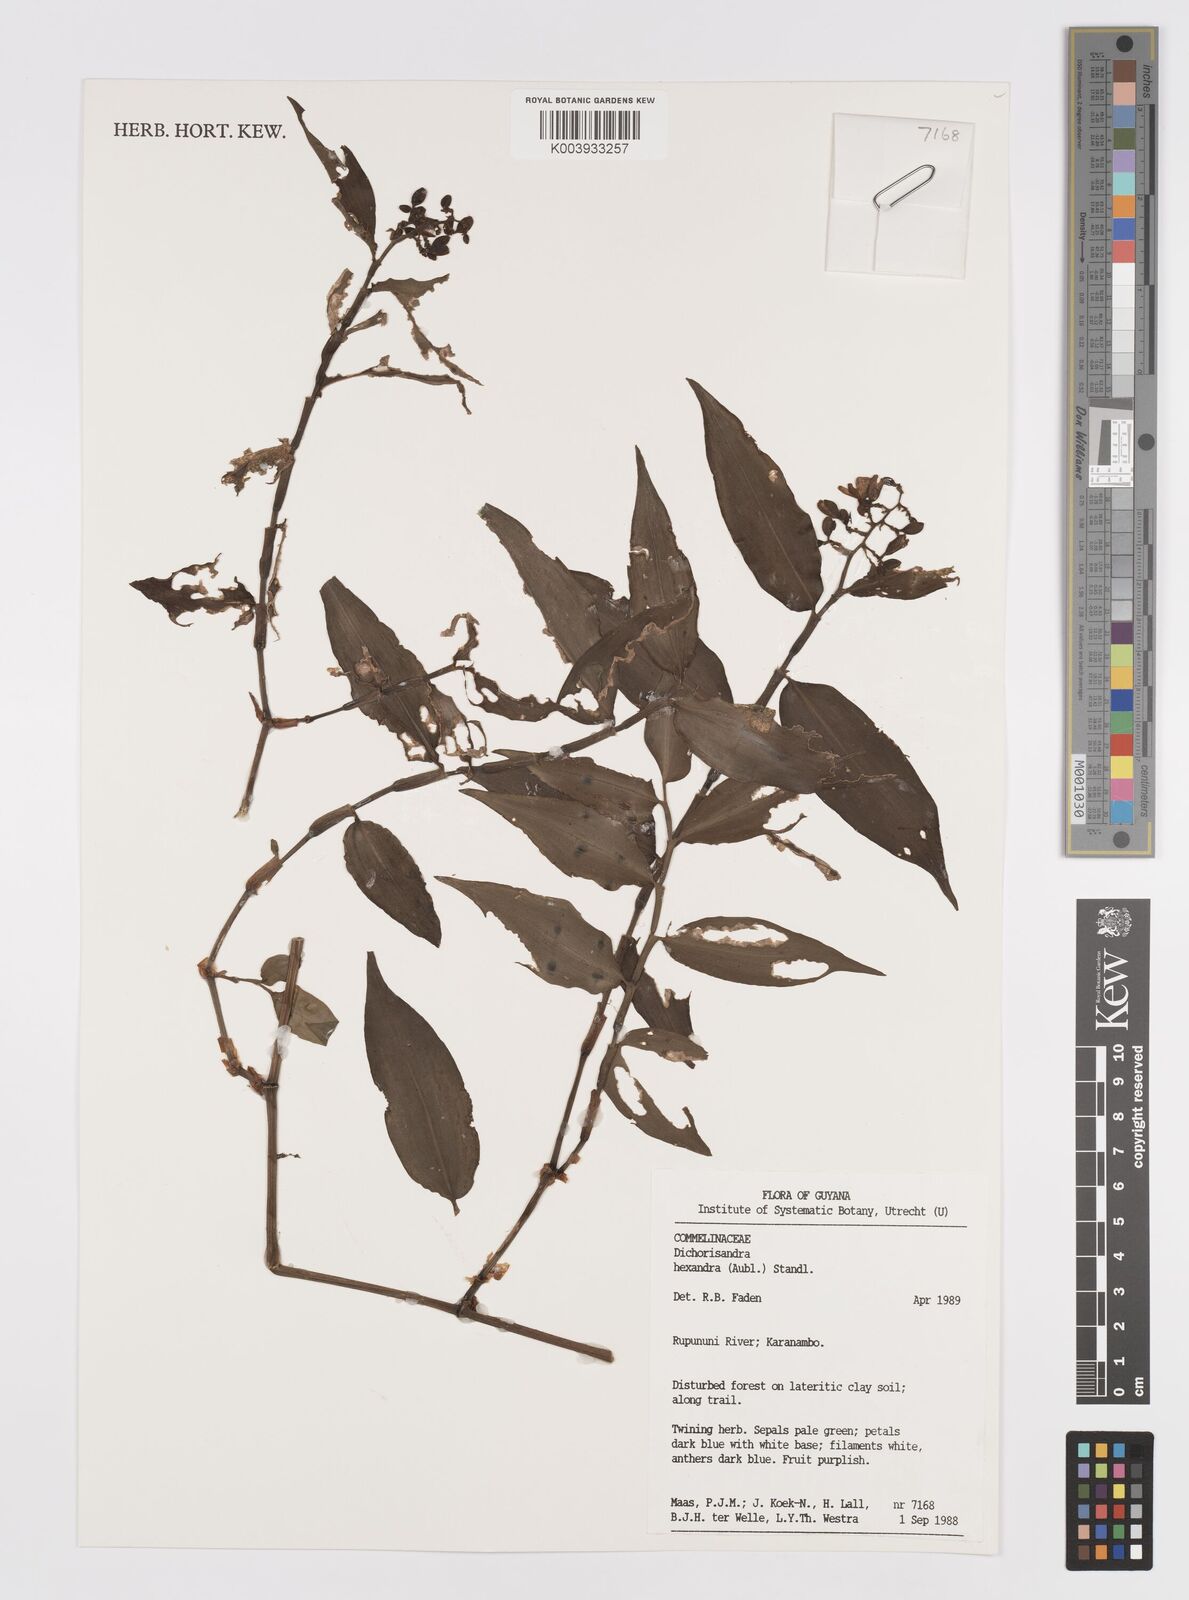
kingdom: Plantae
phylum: Tracheophyta
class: Liliopsida
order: Commelinales
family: Commelinaceae
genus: Dichorisandra
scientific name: Dichorisandra hexandra
